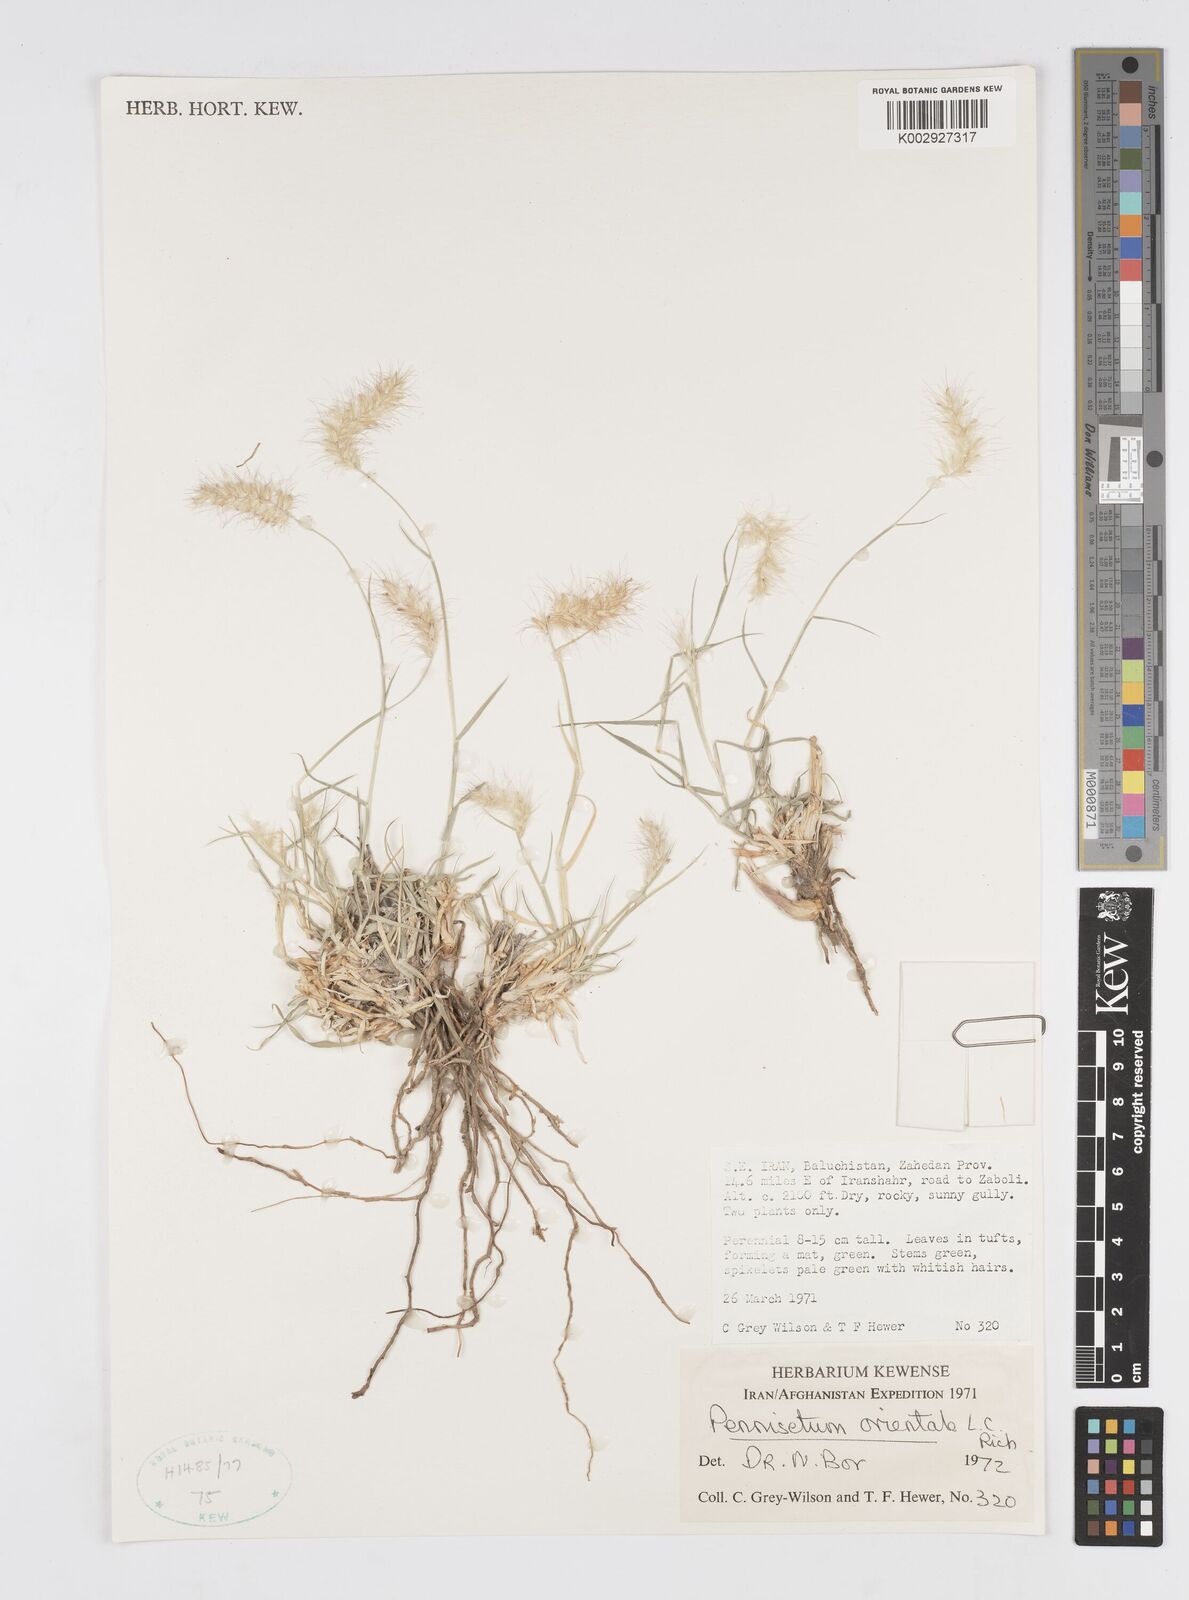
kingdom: Plantae
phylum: Tracheophyta
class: Liliopsida
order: Poales
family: Poaceae
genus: Cenchrus
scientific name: Cenchrus ciliaris
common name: Buffelgrass
